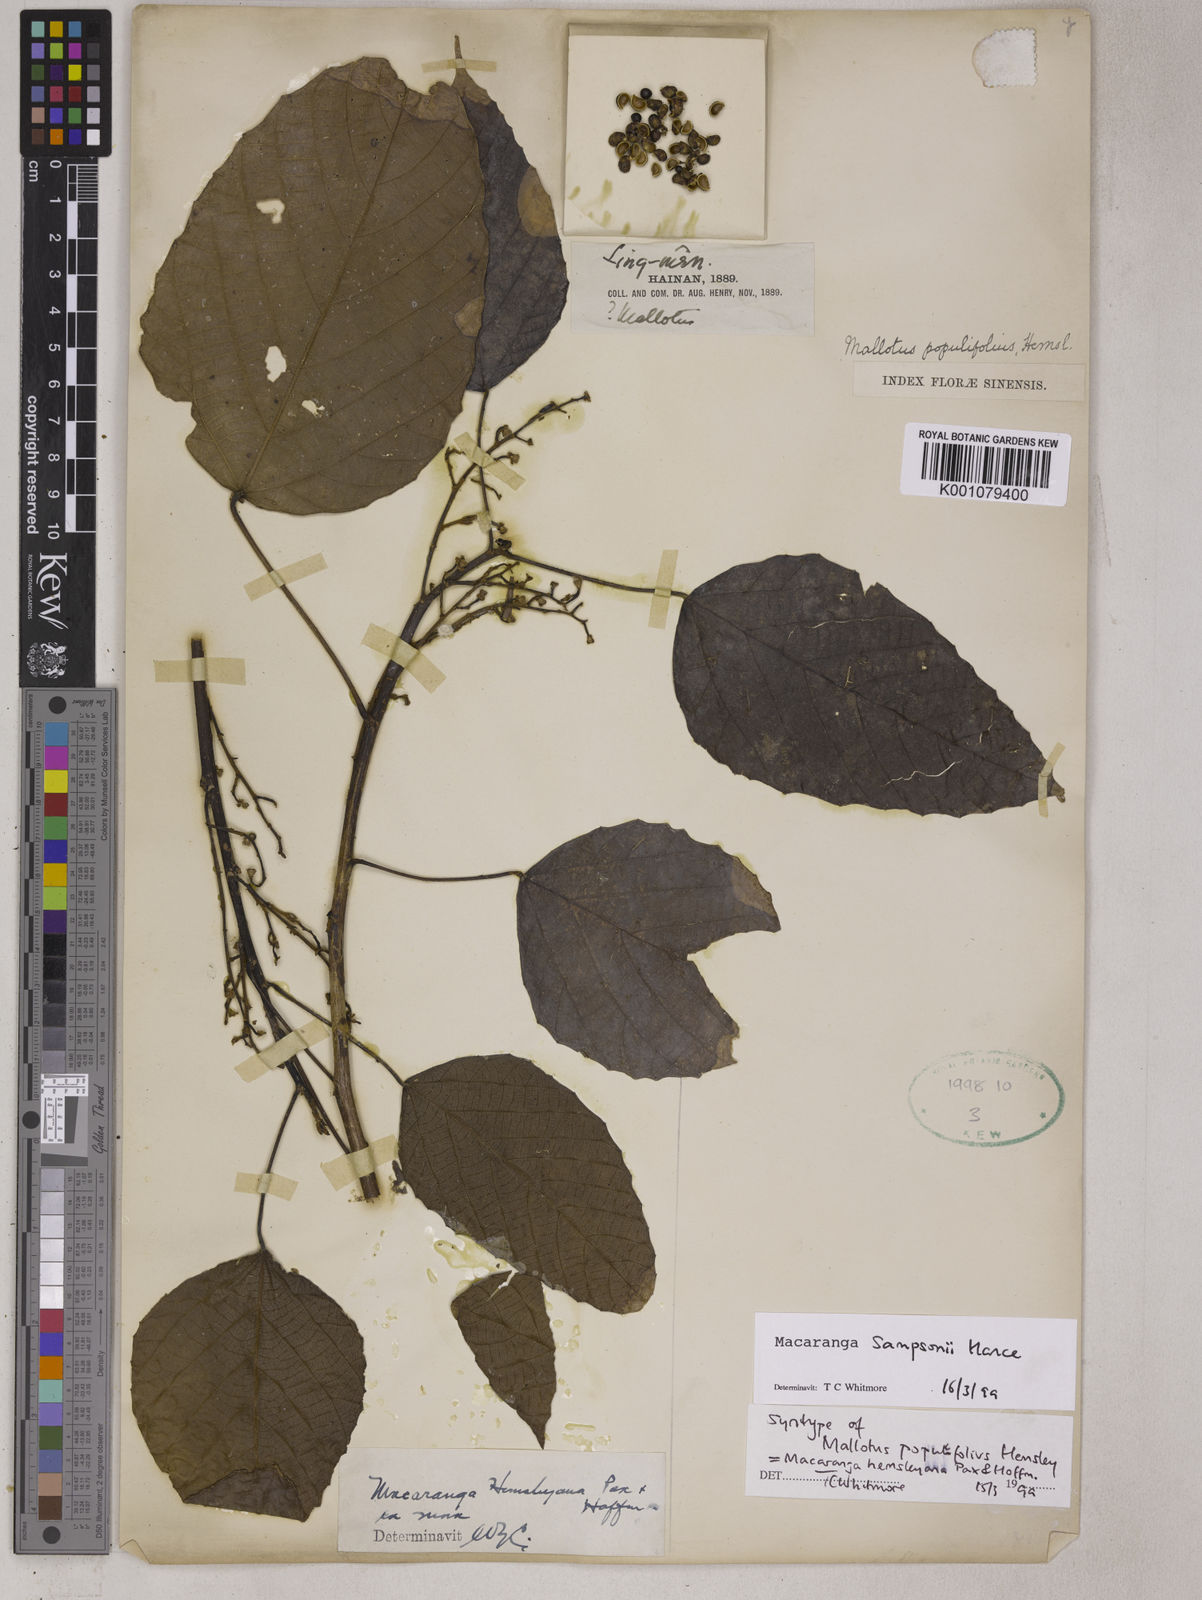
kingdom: Plantae
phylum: Tracheophyta
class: Magnoliopsida
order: Malpighiales
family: Euphorbiaceae
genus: Macaranga
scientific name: Macaranga sampsonii
